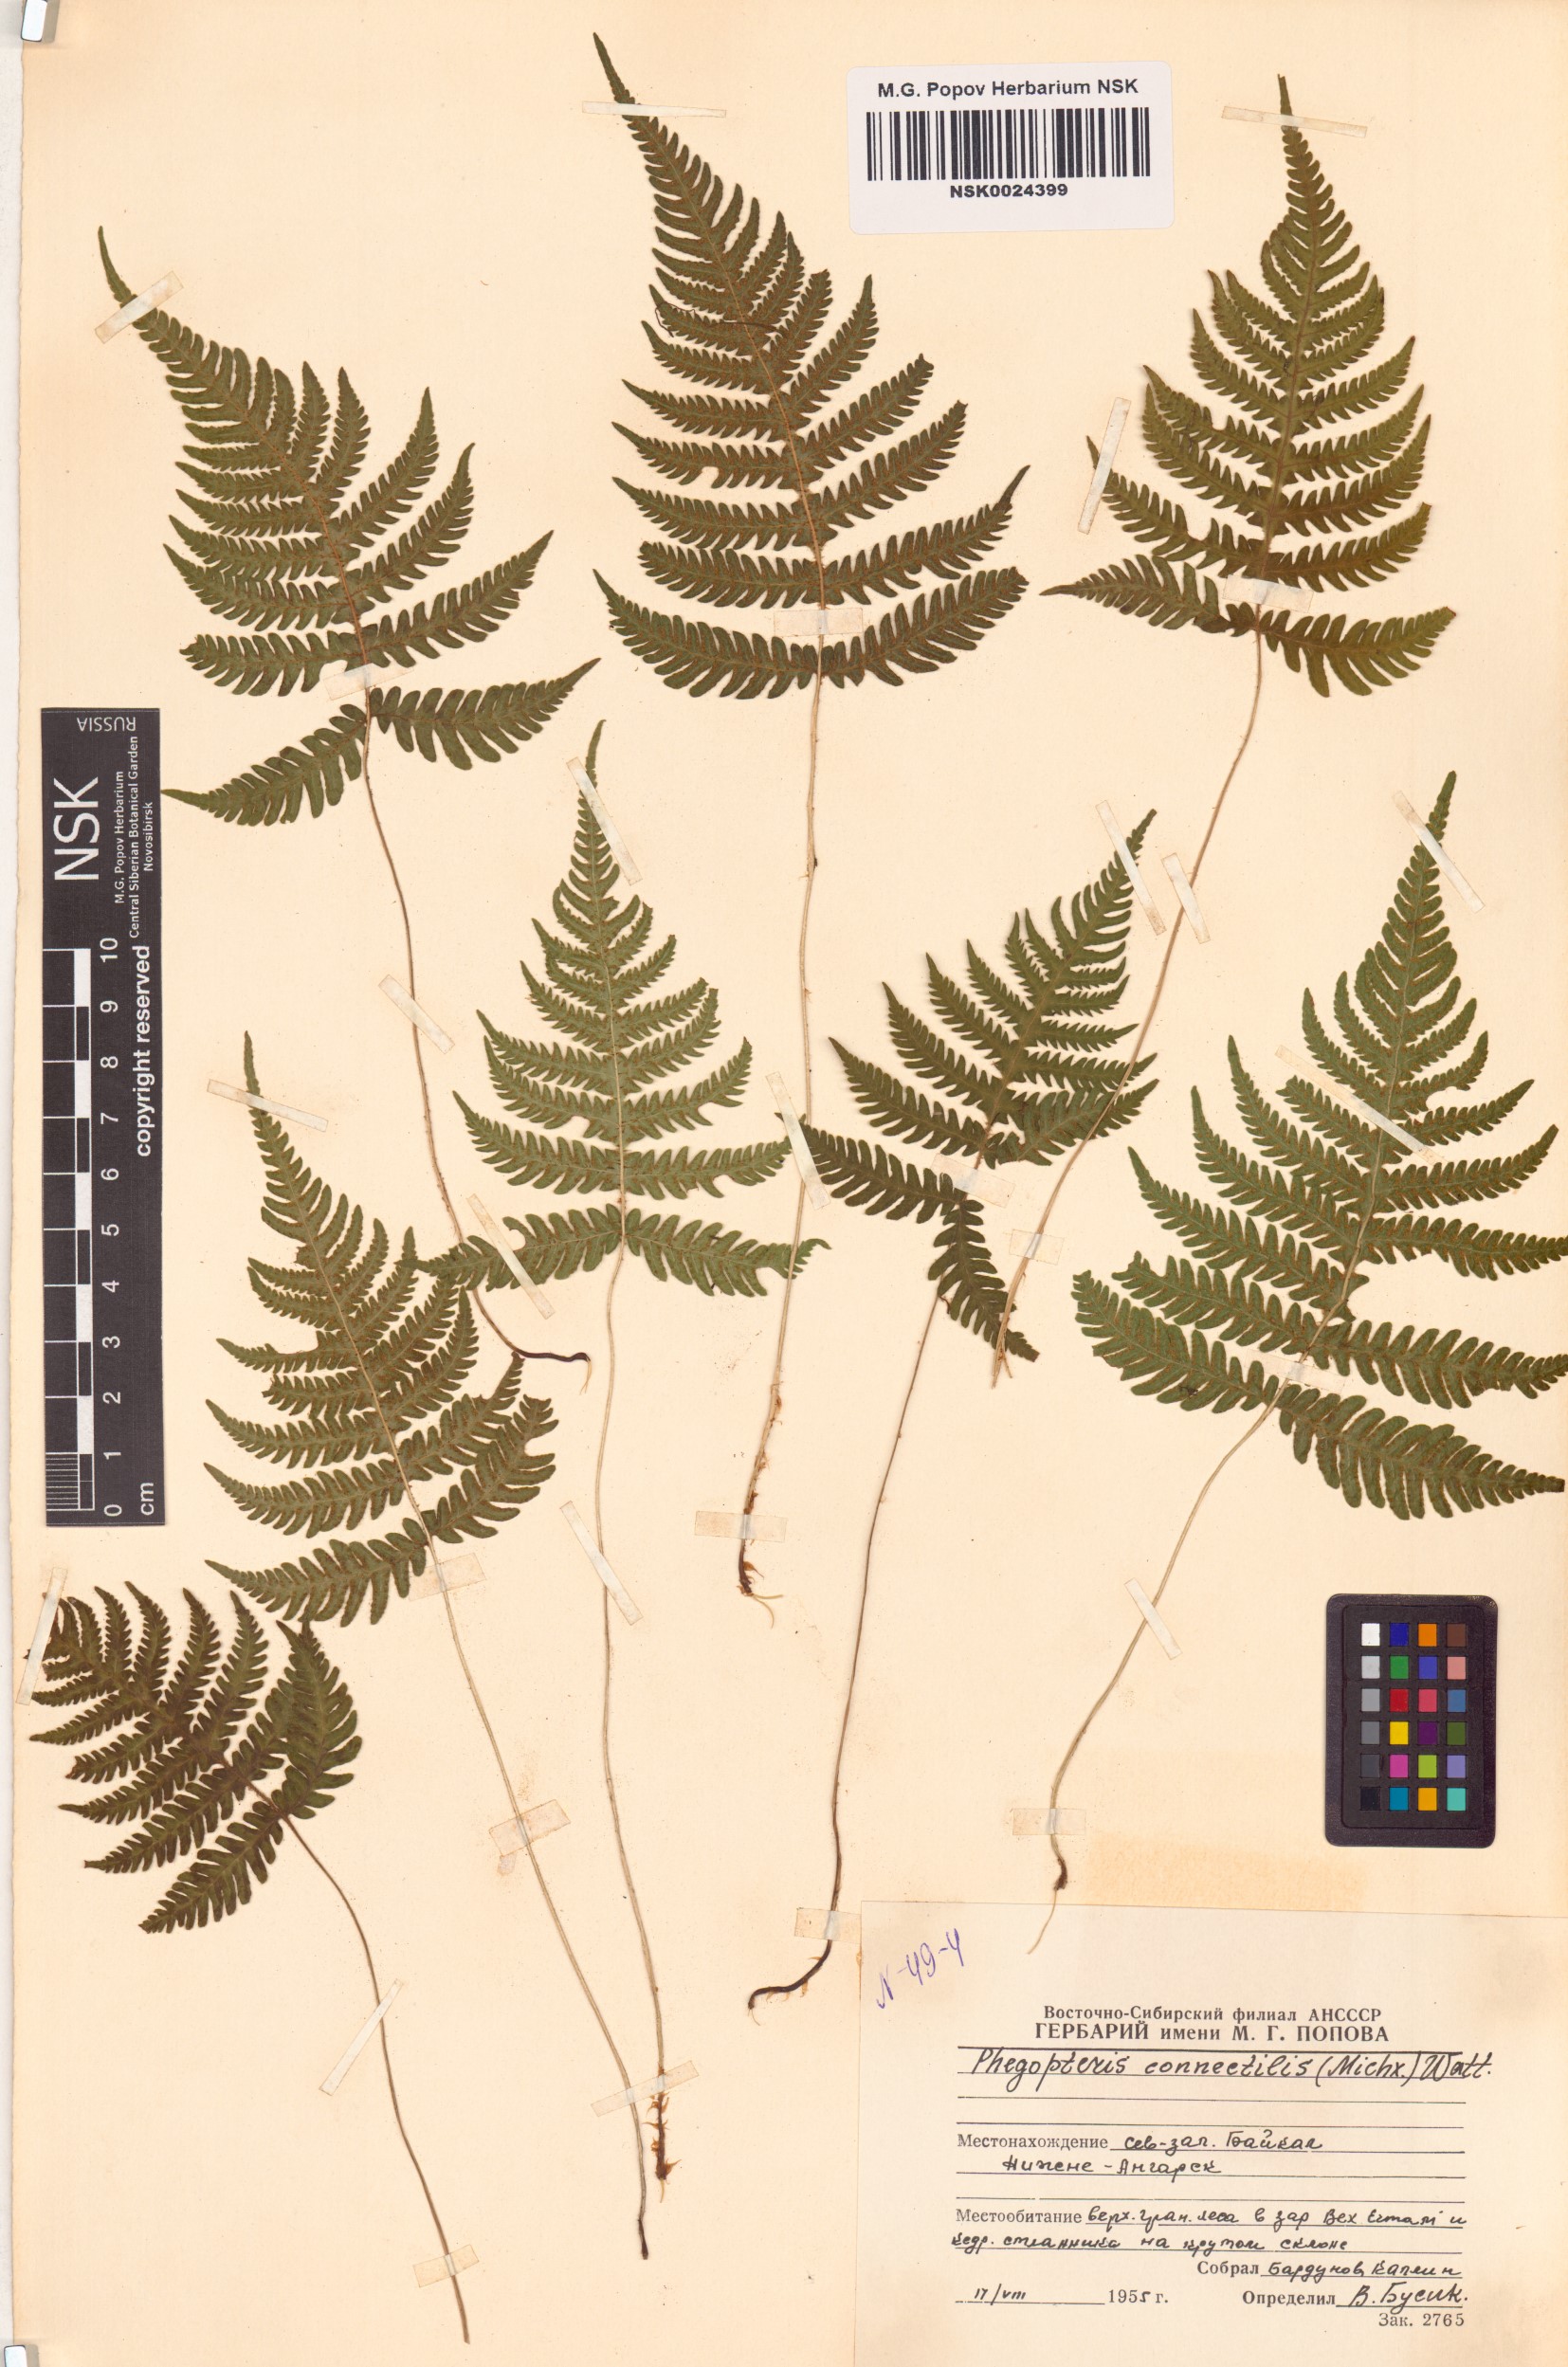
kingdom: Plantae
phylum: Tracheophyta
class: Polypodiopsida
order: Polypodiales
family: Thelypteridaceae
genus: Phegopteris
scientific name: Phegopteris connectilis
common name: Beech fern
